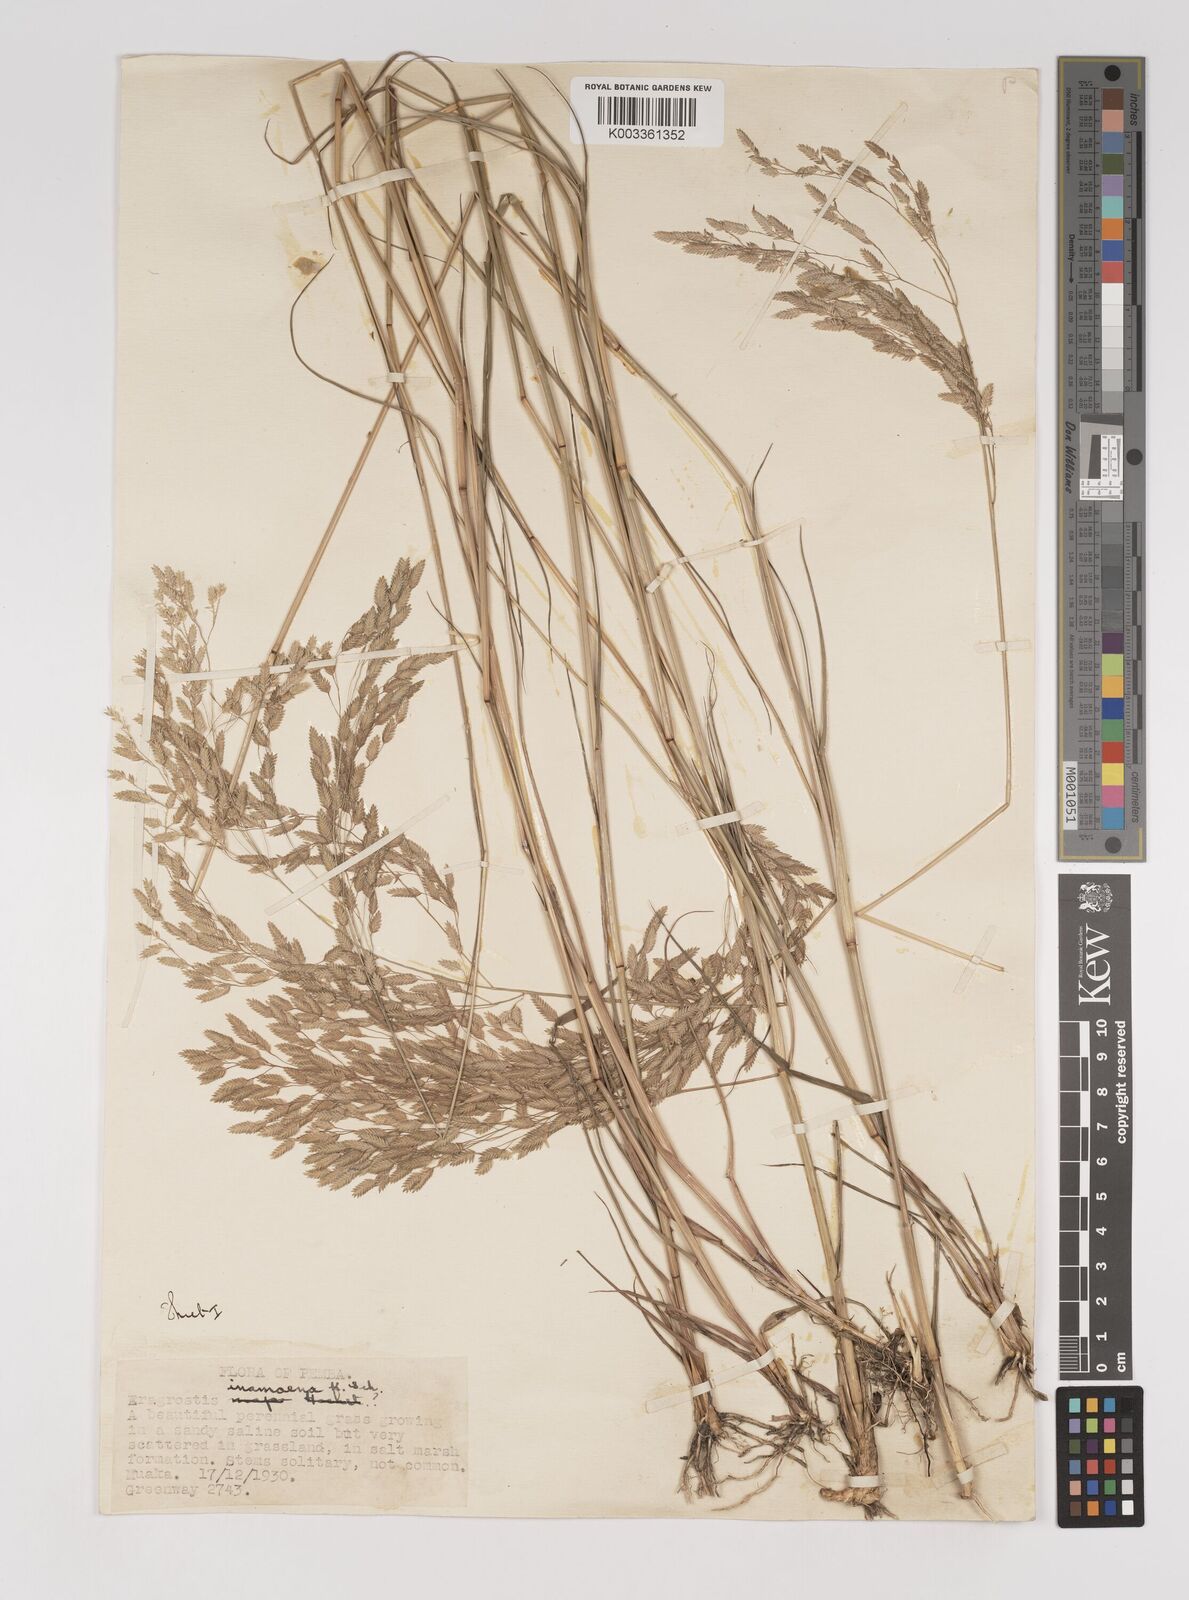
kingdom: Plantae
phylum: Tracheophyta
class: Liliopsida
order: Poales
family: Poaceae
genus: Eragrostis
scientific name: Eragrostis inamoena
